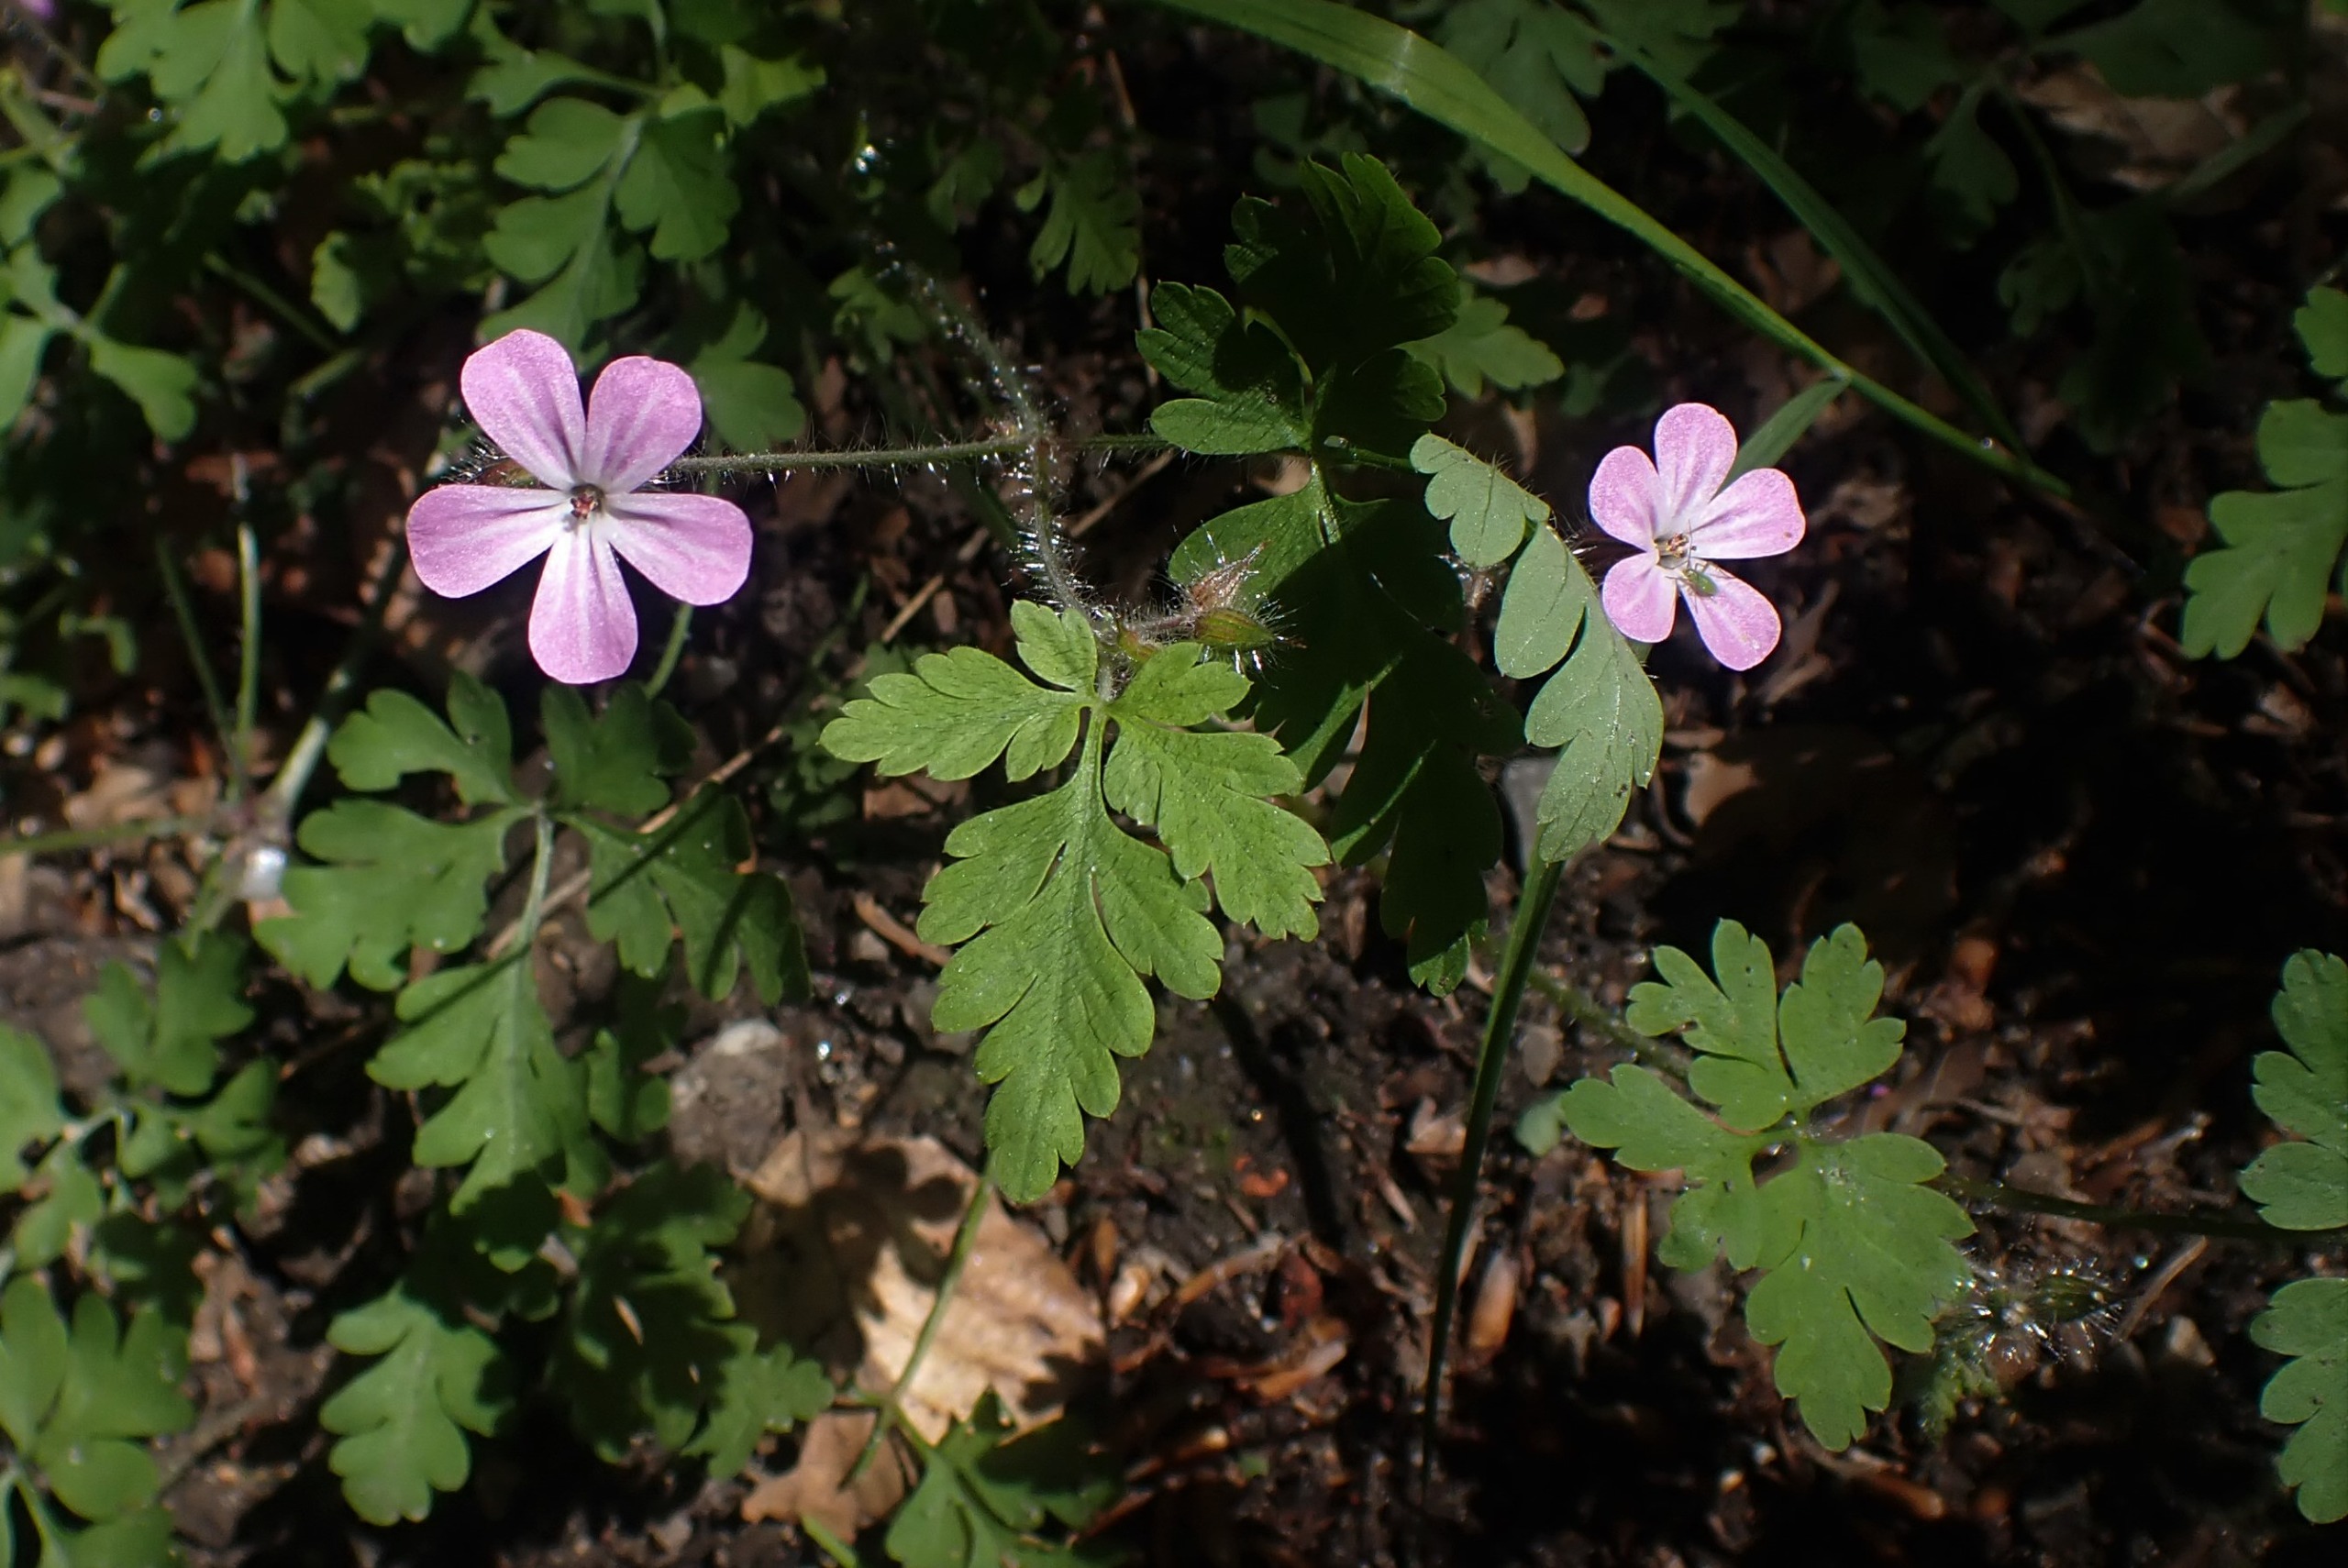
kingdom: Plantae
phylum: Tracheophyta
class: Magnoliopsida
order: Geraniales
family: Geraniaceae
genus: Geranium
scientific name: Geranium robertianum
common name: Stinkende storkenæb
